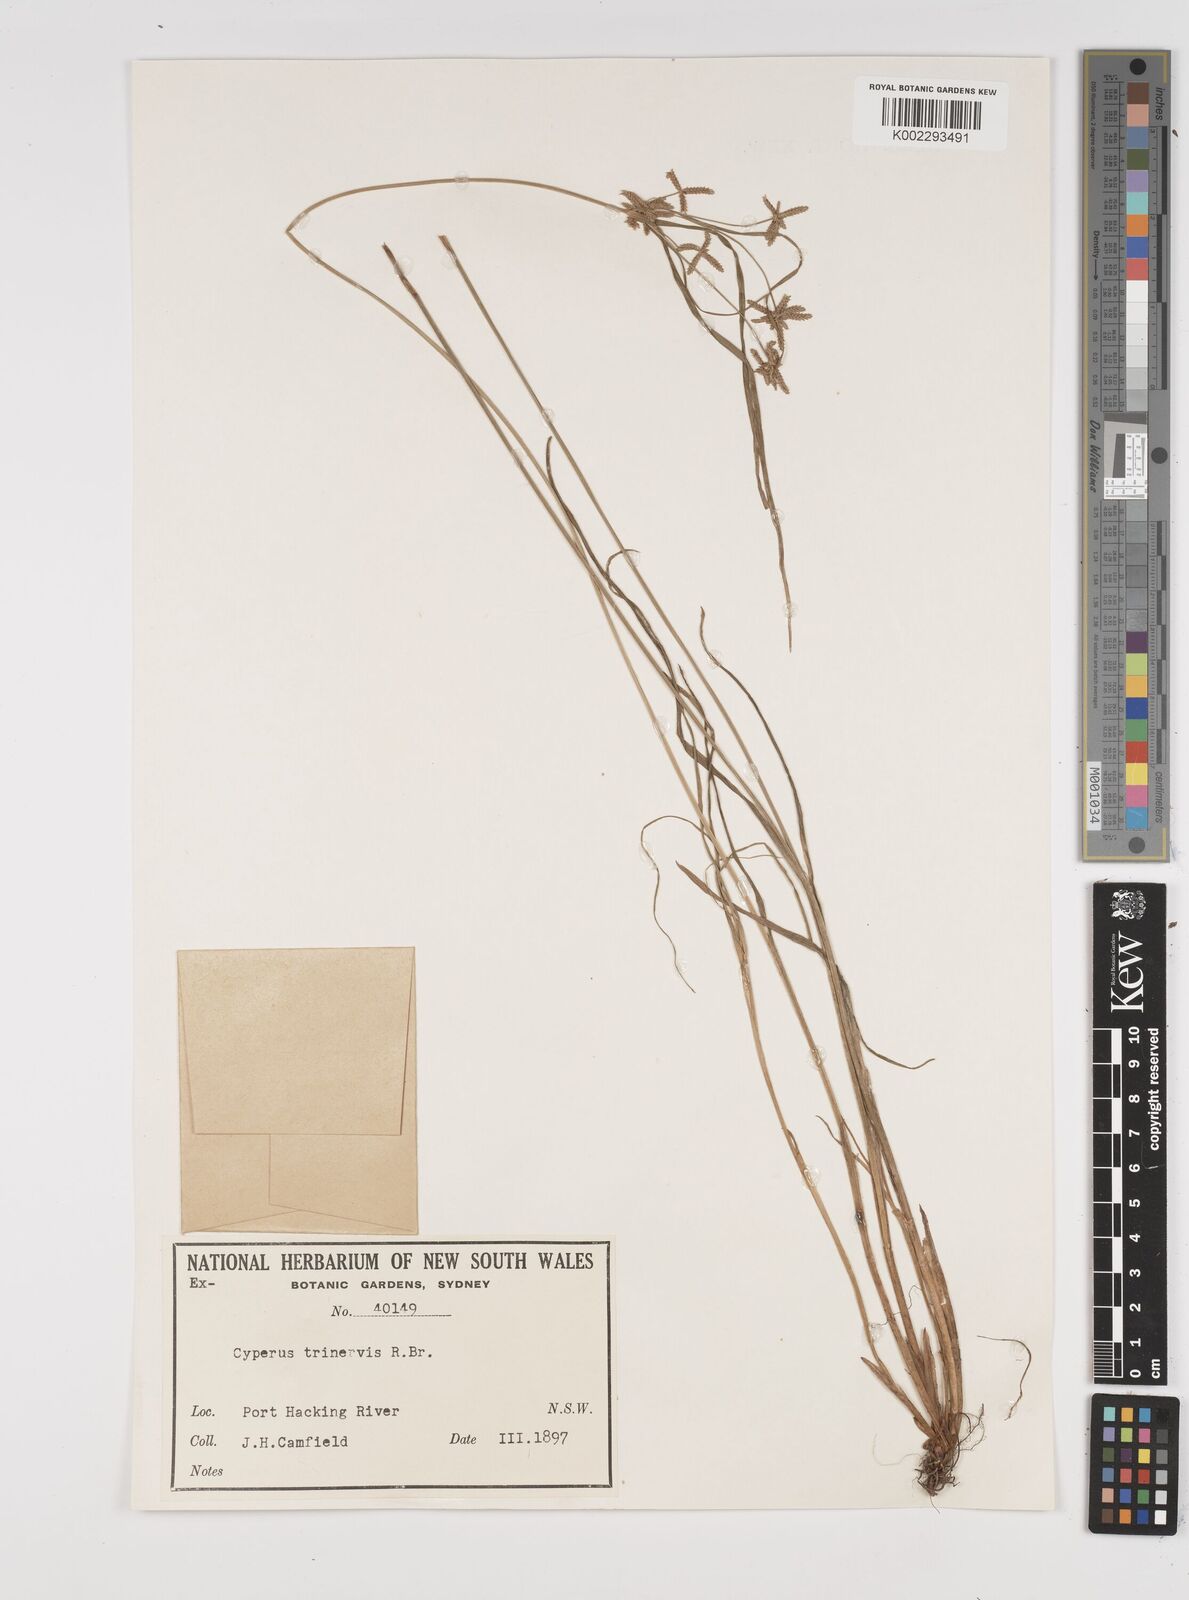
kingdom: Plantae
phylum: Tracheophyta
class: Liliopsida
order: Poales
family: Cyperaceae
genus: Cyperus
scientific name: Cyperus trinervis
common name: Australian flatsedge
